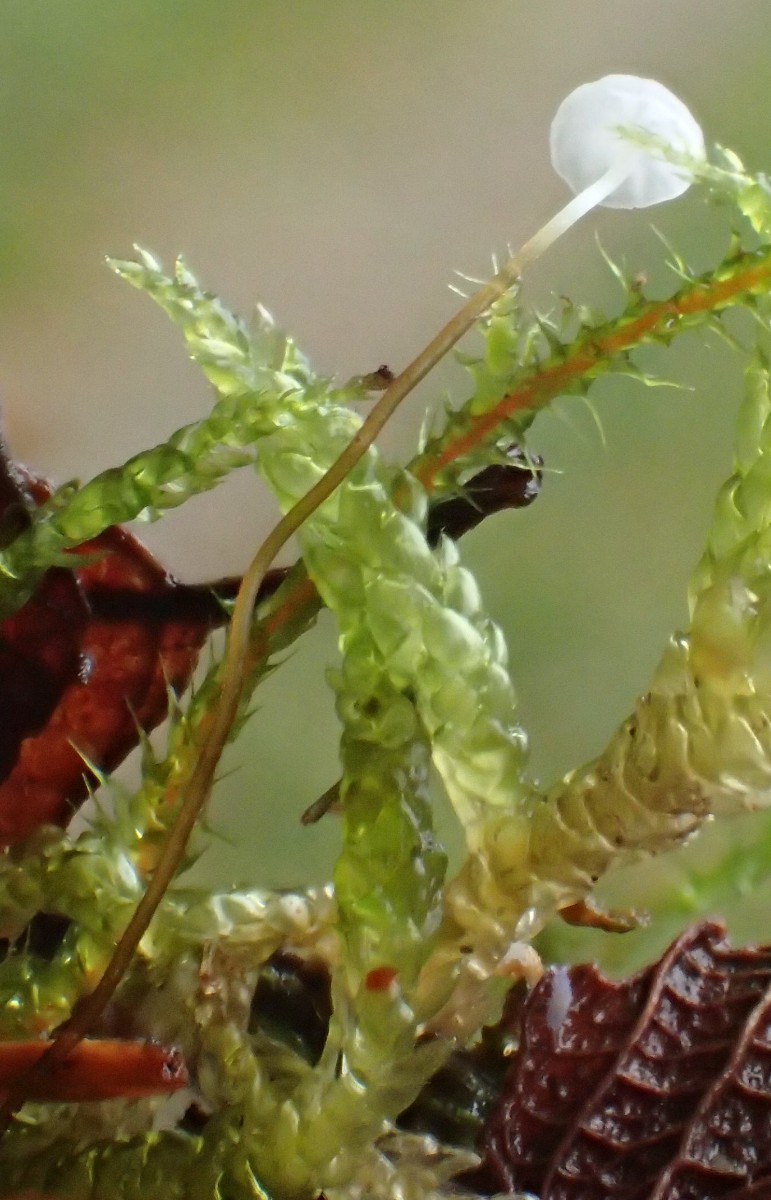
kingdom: Fungi
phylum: Basidiomycota
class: Agaricomycetes
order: Agaricales
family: Physalacriaceae
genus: Rhizomarasmius
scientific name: Rhizomarasmius setosus
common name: bøgeblads-bruskhat
